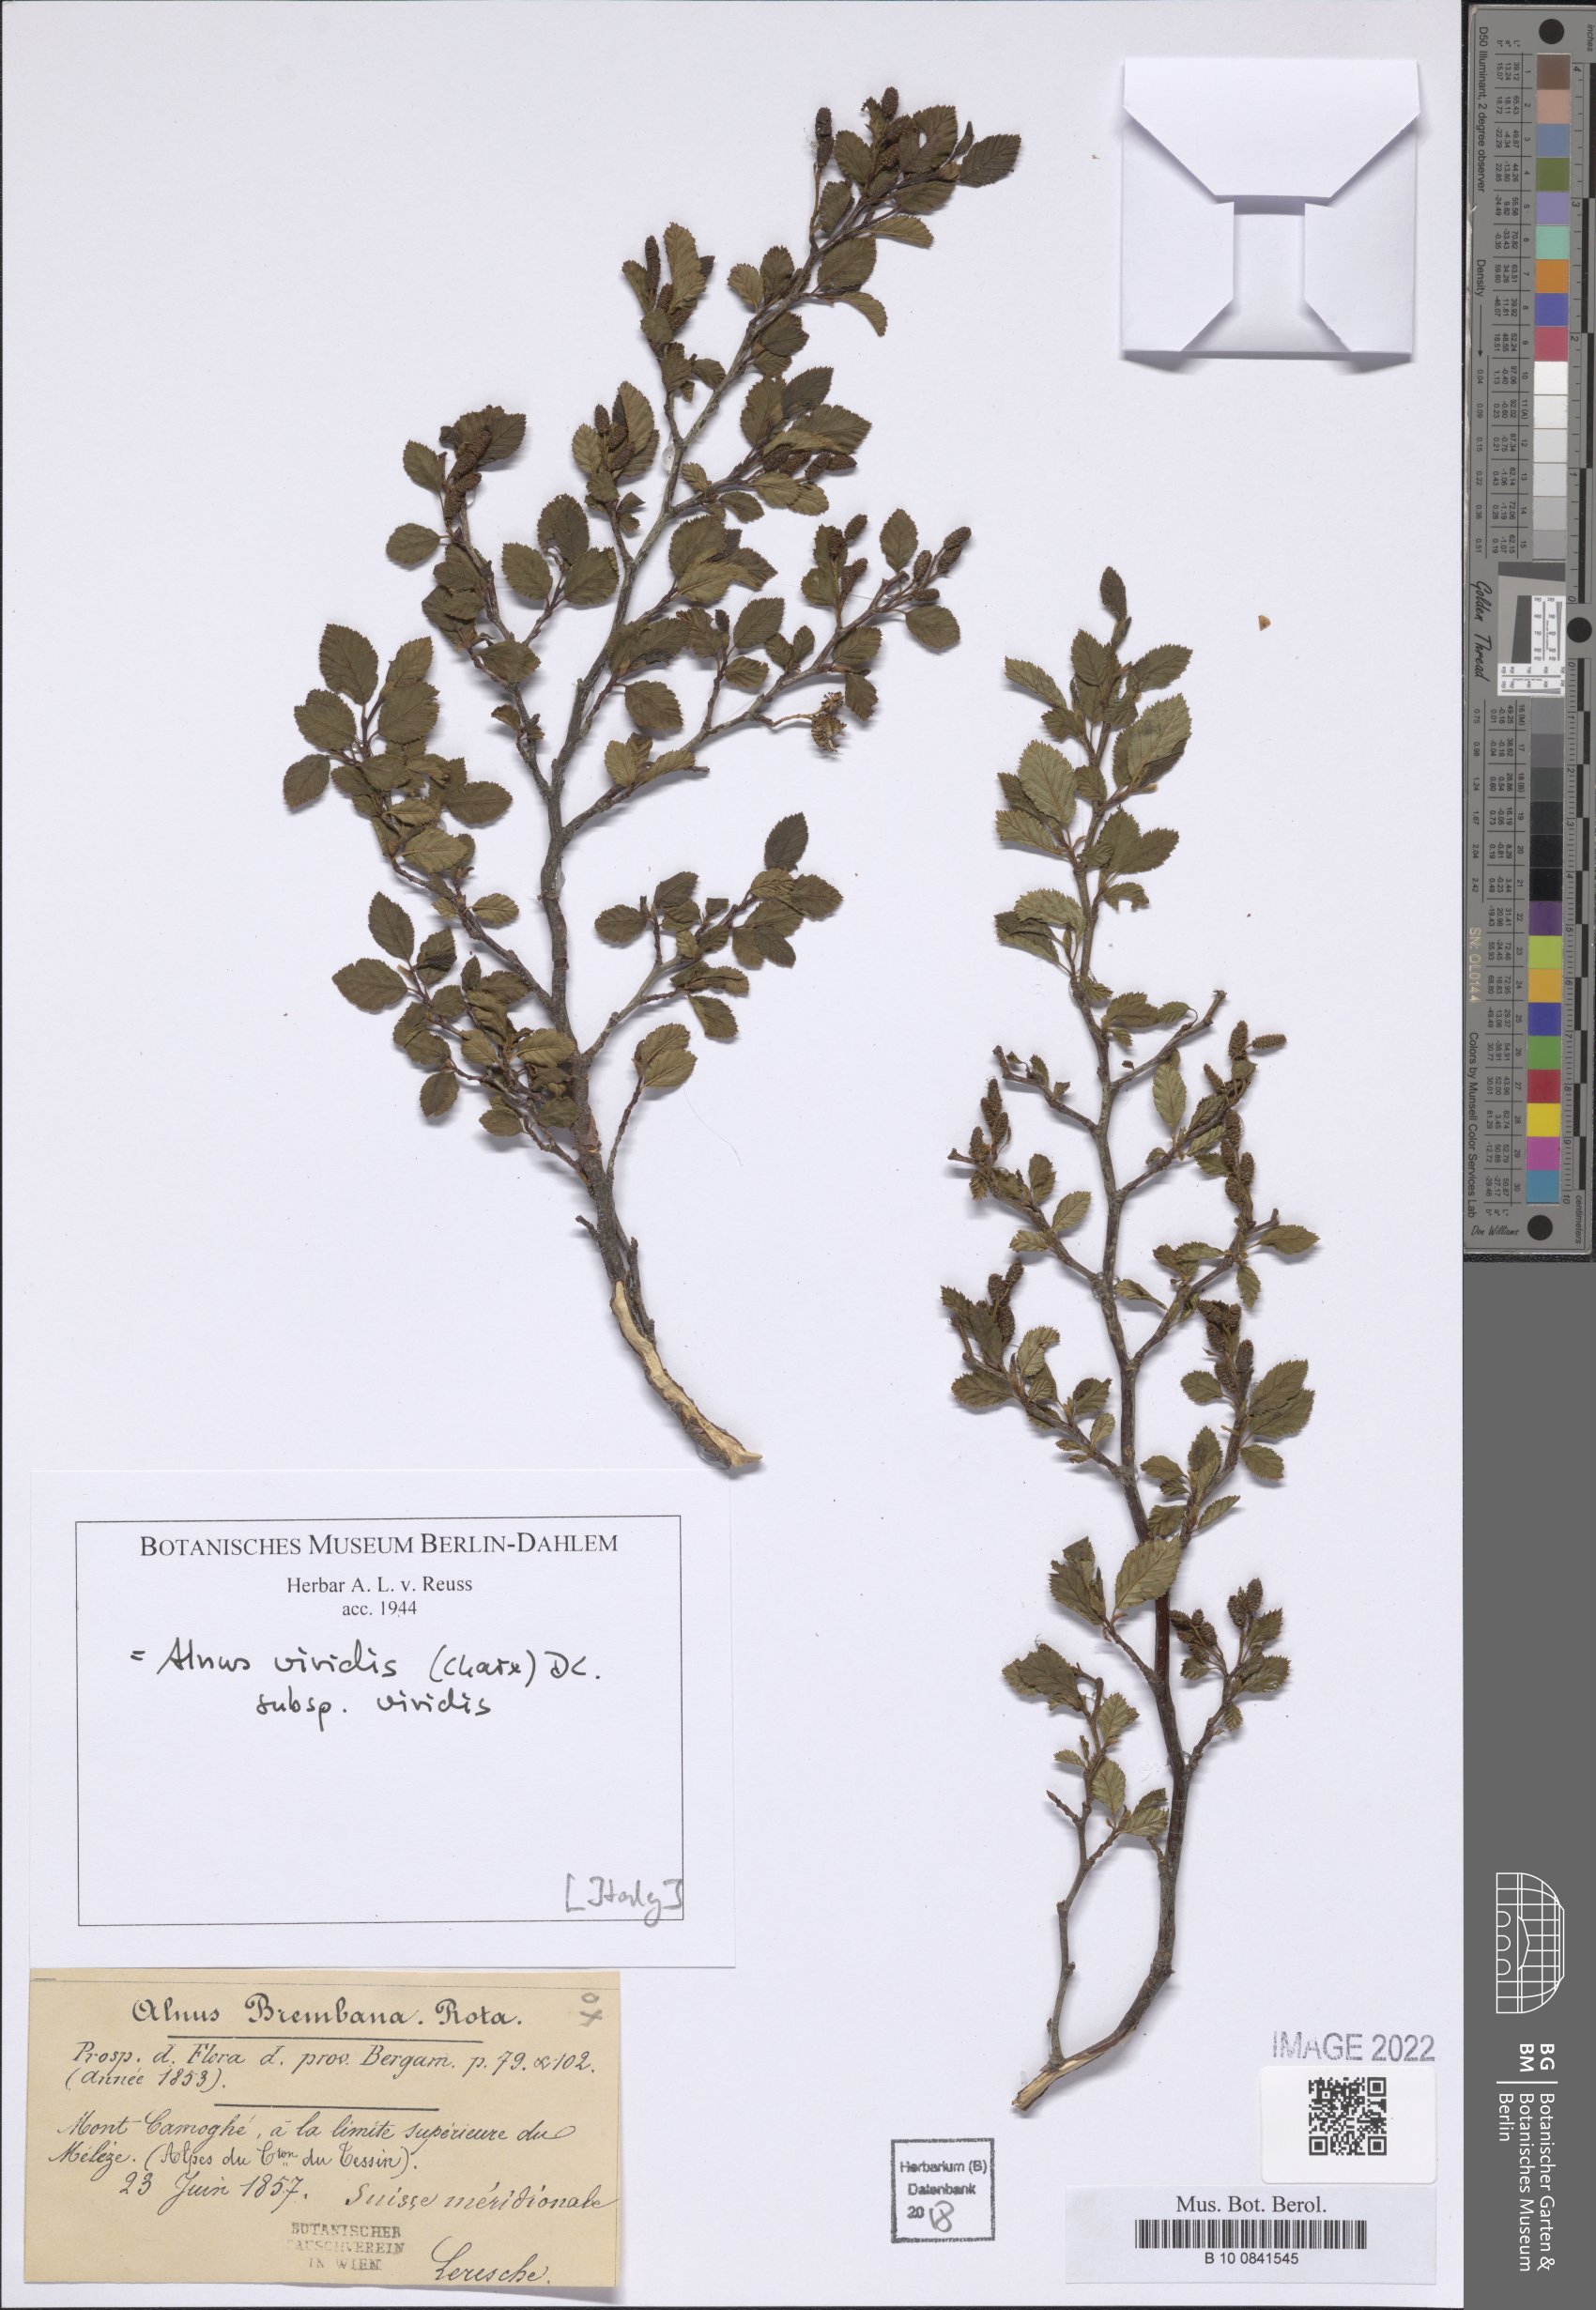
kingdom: Plantae
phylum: Tracheophyta
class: Magnoliopsida
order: Fagales
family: Betulaceae
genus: Alnus
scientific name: Alnus alnobetula
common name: Green alder
